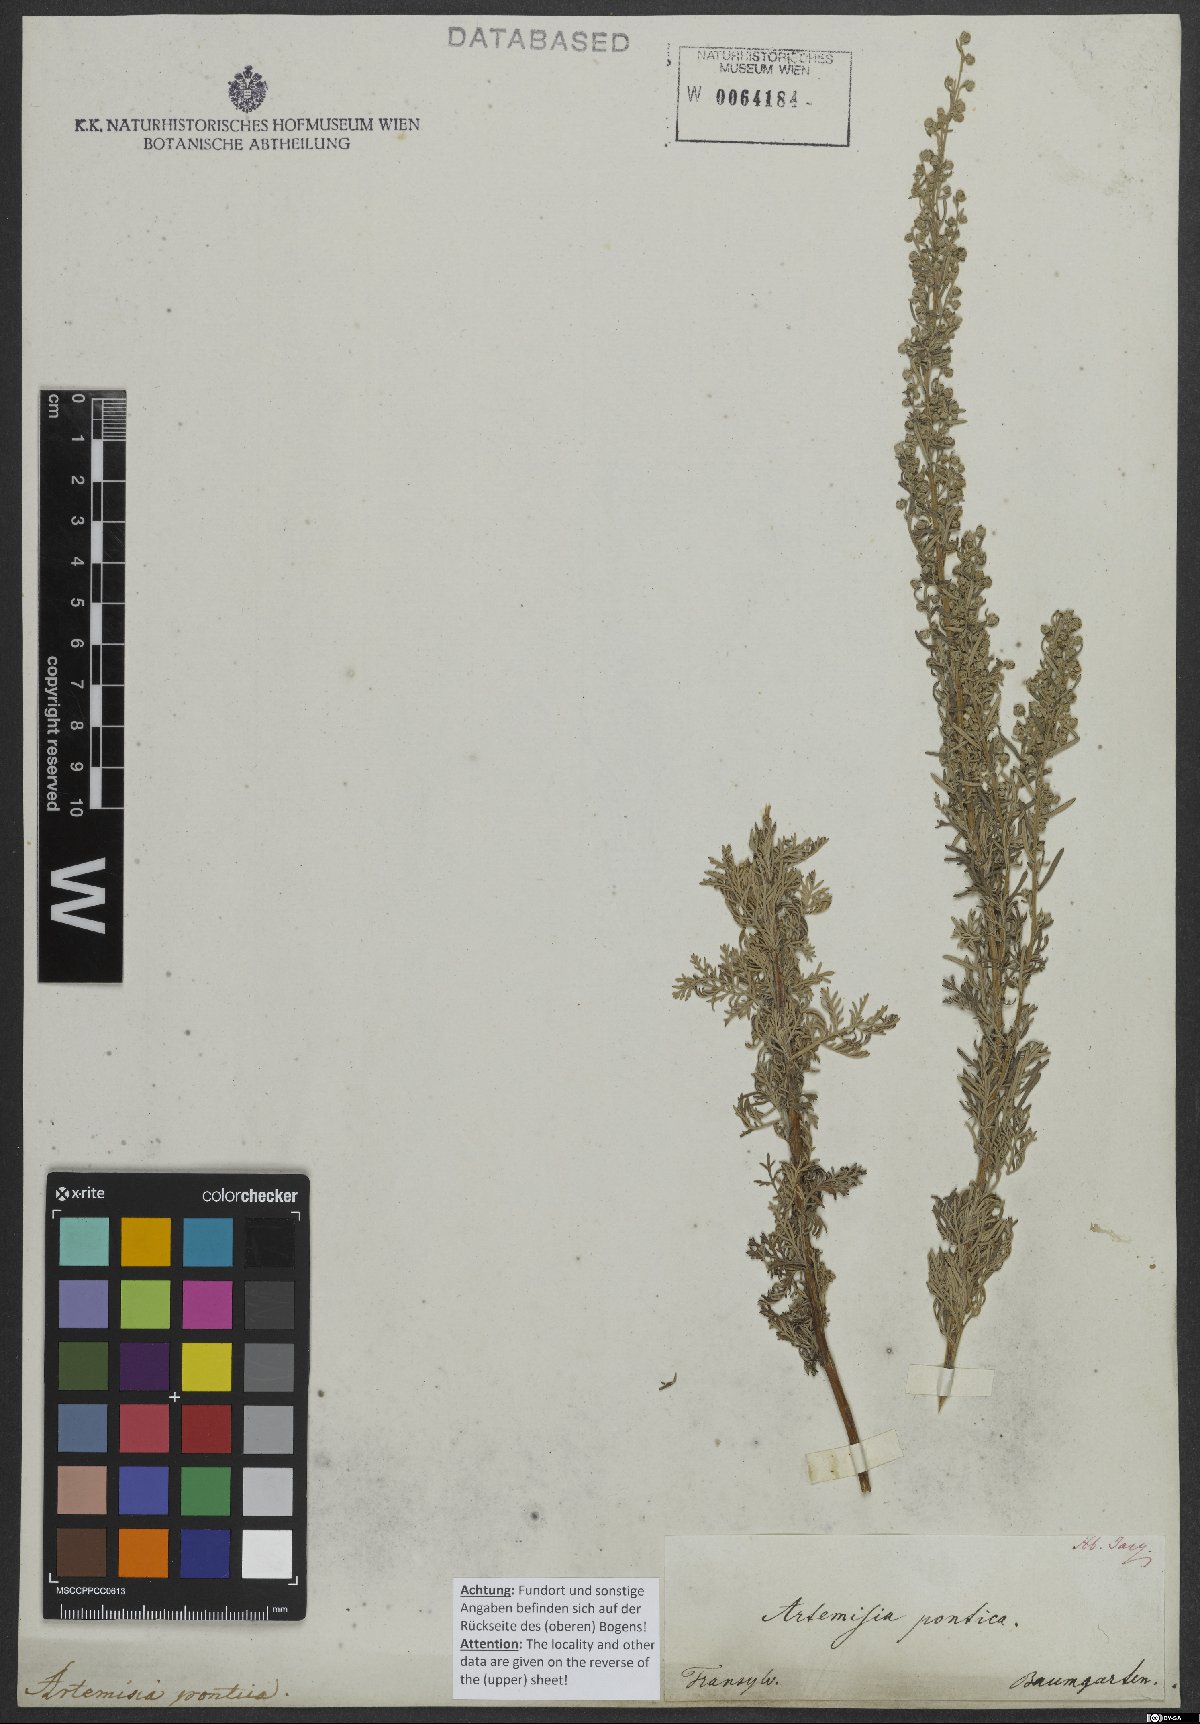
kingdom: Plantae
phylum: Tracheophyta
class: Magnoliopsida
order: Asterales
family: Asteraceae
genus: Artemisia
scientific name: Artemisia pontica
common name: Roman wormwood
